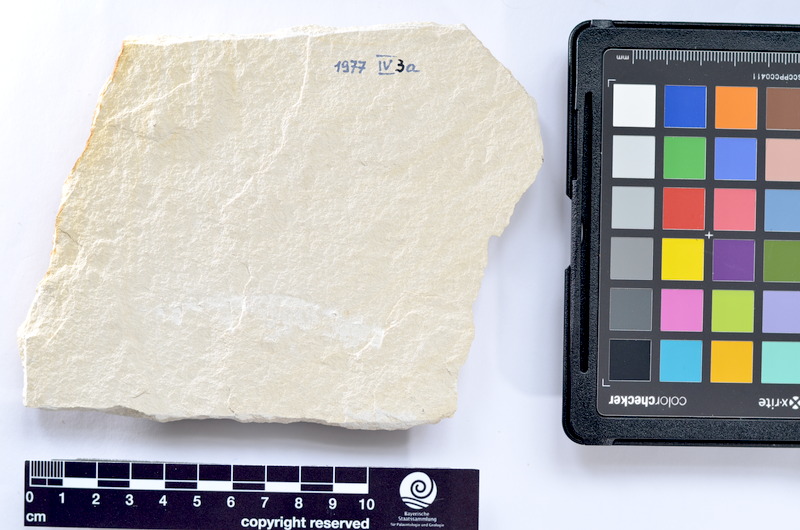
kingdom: Animalia
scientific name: Animalia
